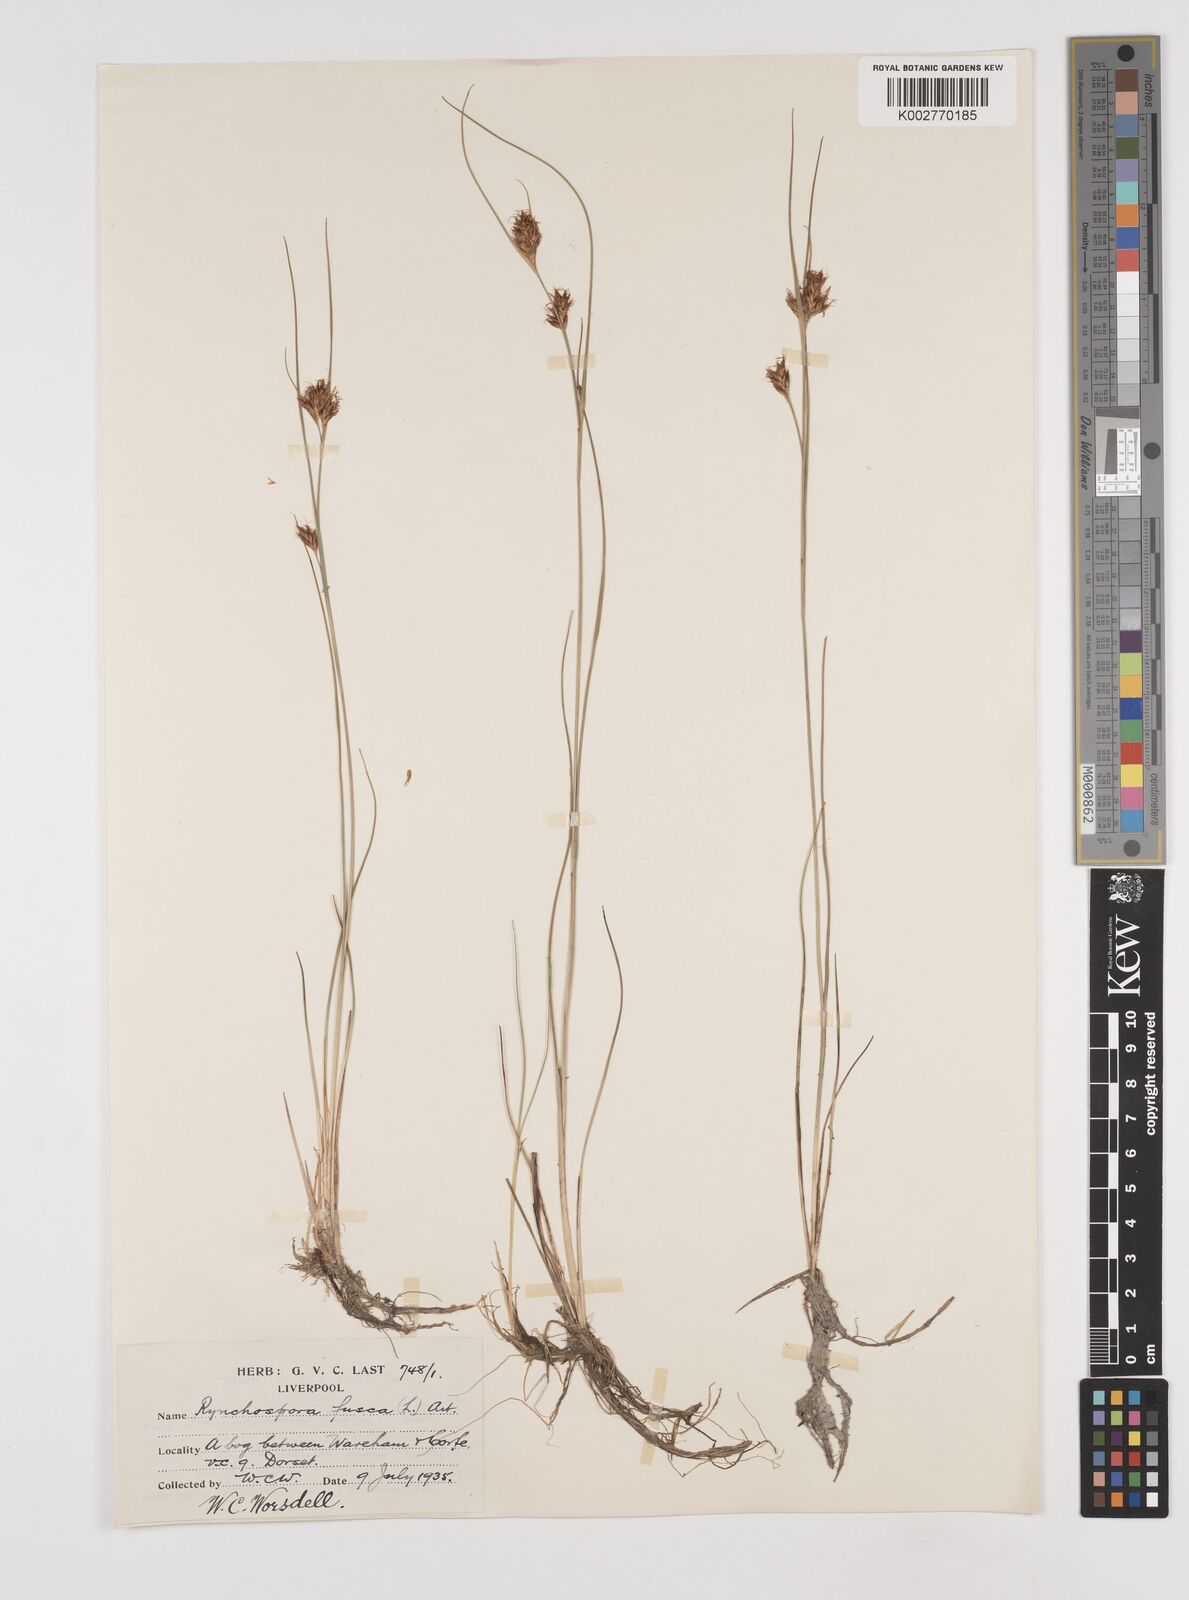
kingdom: Plantae
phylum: Tracheophyta
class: Liliopsida
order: Poales
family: Cyperaceae
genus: Rhynchospora
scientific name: Rhynchospora fusca
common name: Brown beak-sedge
